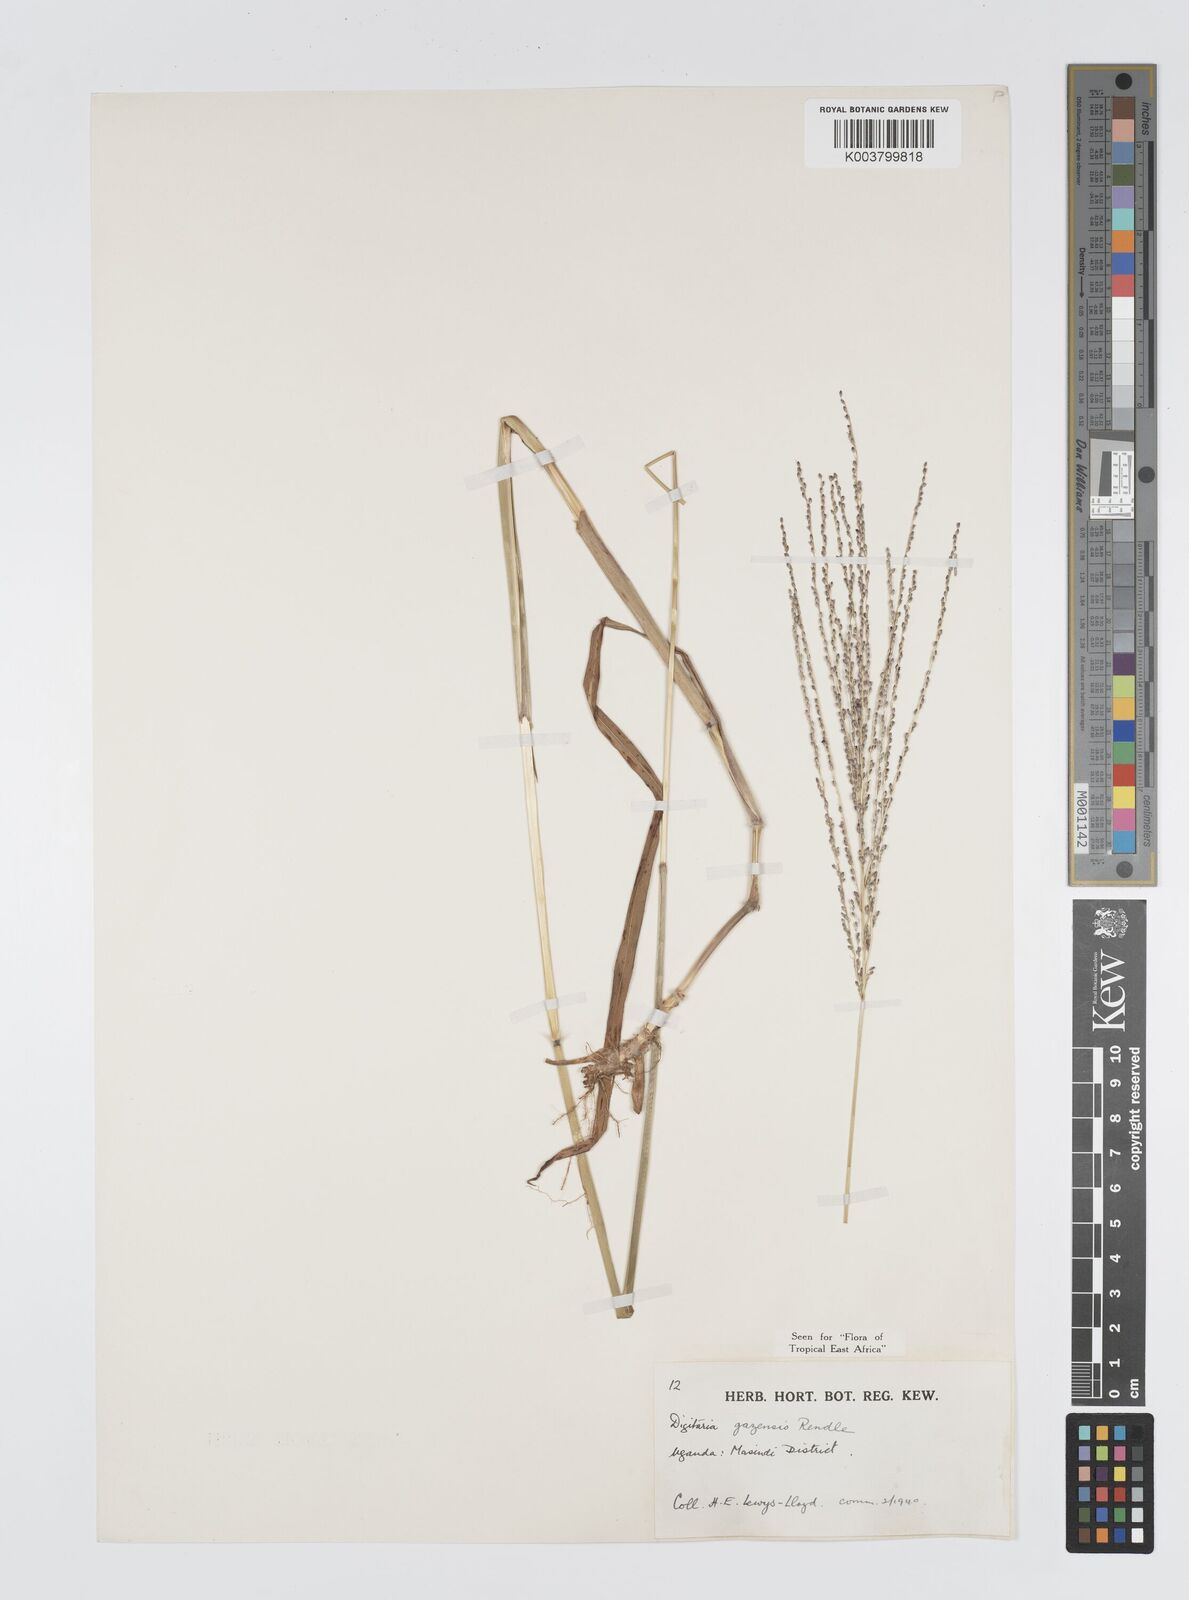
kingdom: Plantae
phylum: Tracheophyta
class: Liliopsida
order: Poales
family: Poaceae
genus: Digitaria
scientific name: Digitaria gazensis
